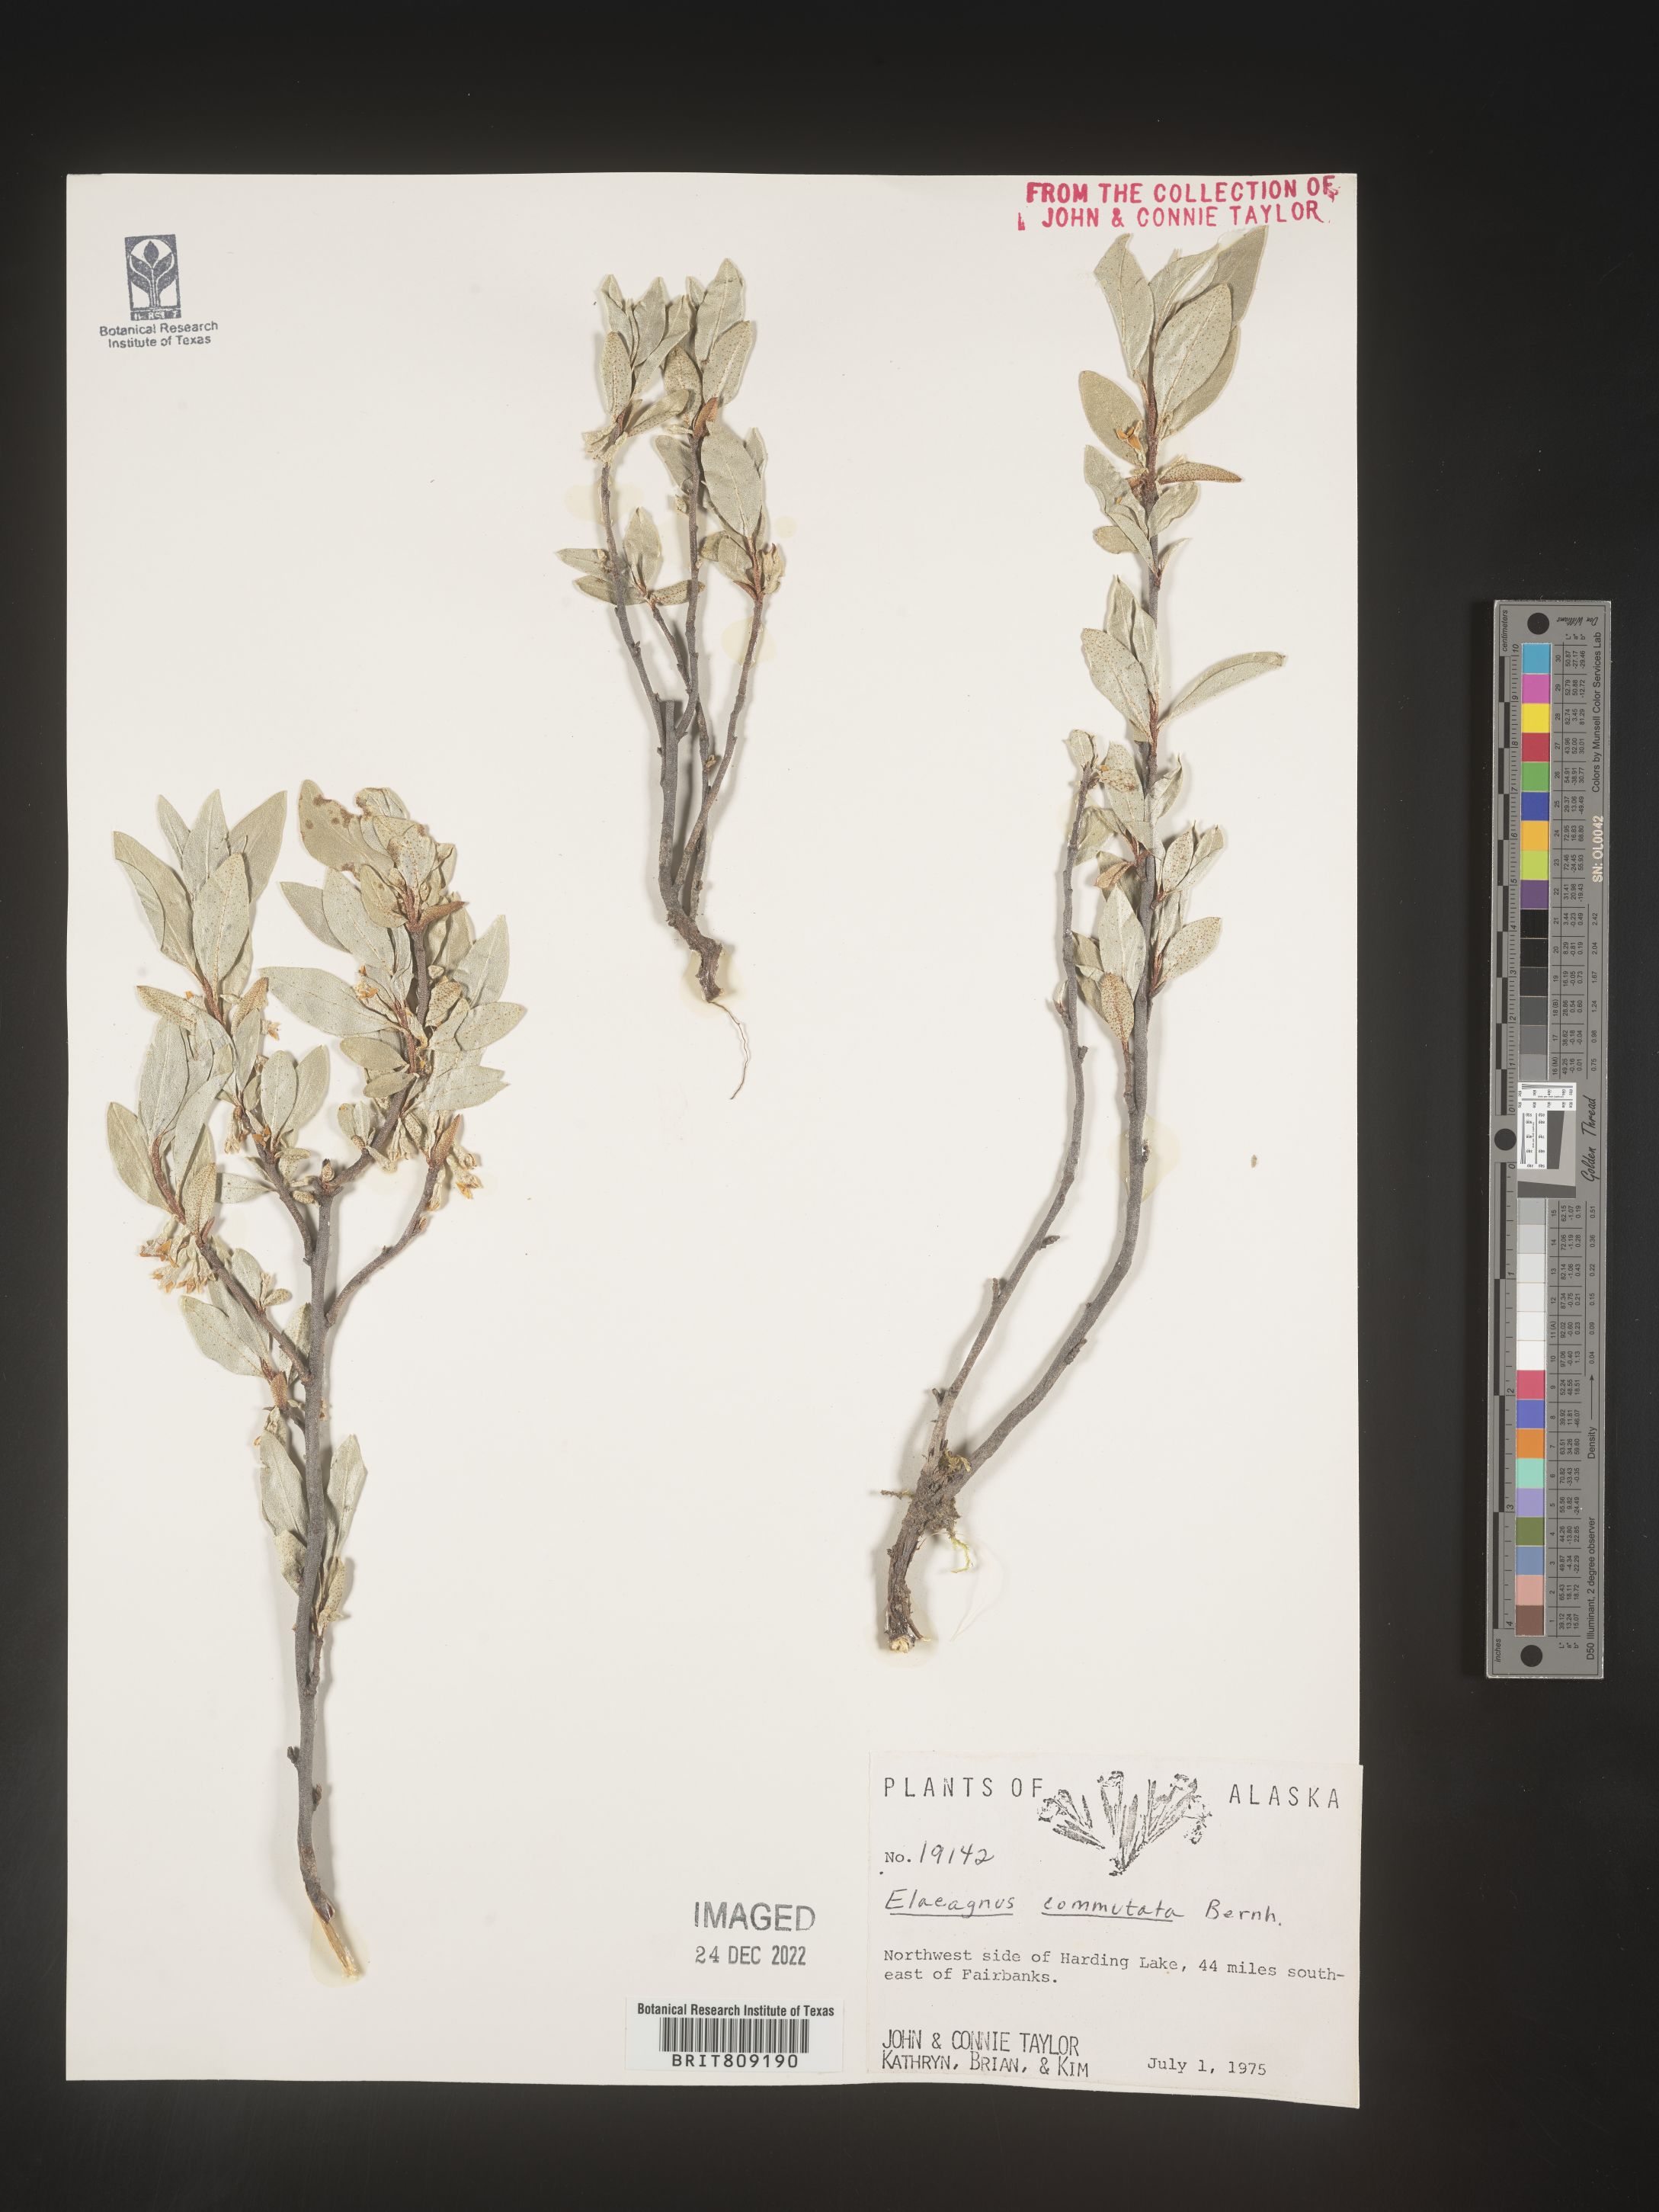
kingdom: Plantae
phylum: Tracheophyta
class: Magnoliopsida
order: Rosales
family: Elaeagnaceae
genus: Elaeagnus
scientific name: Elaeagnus
